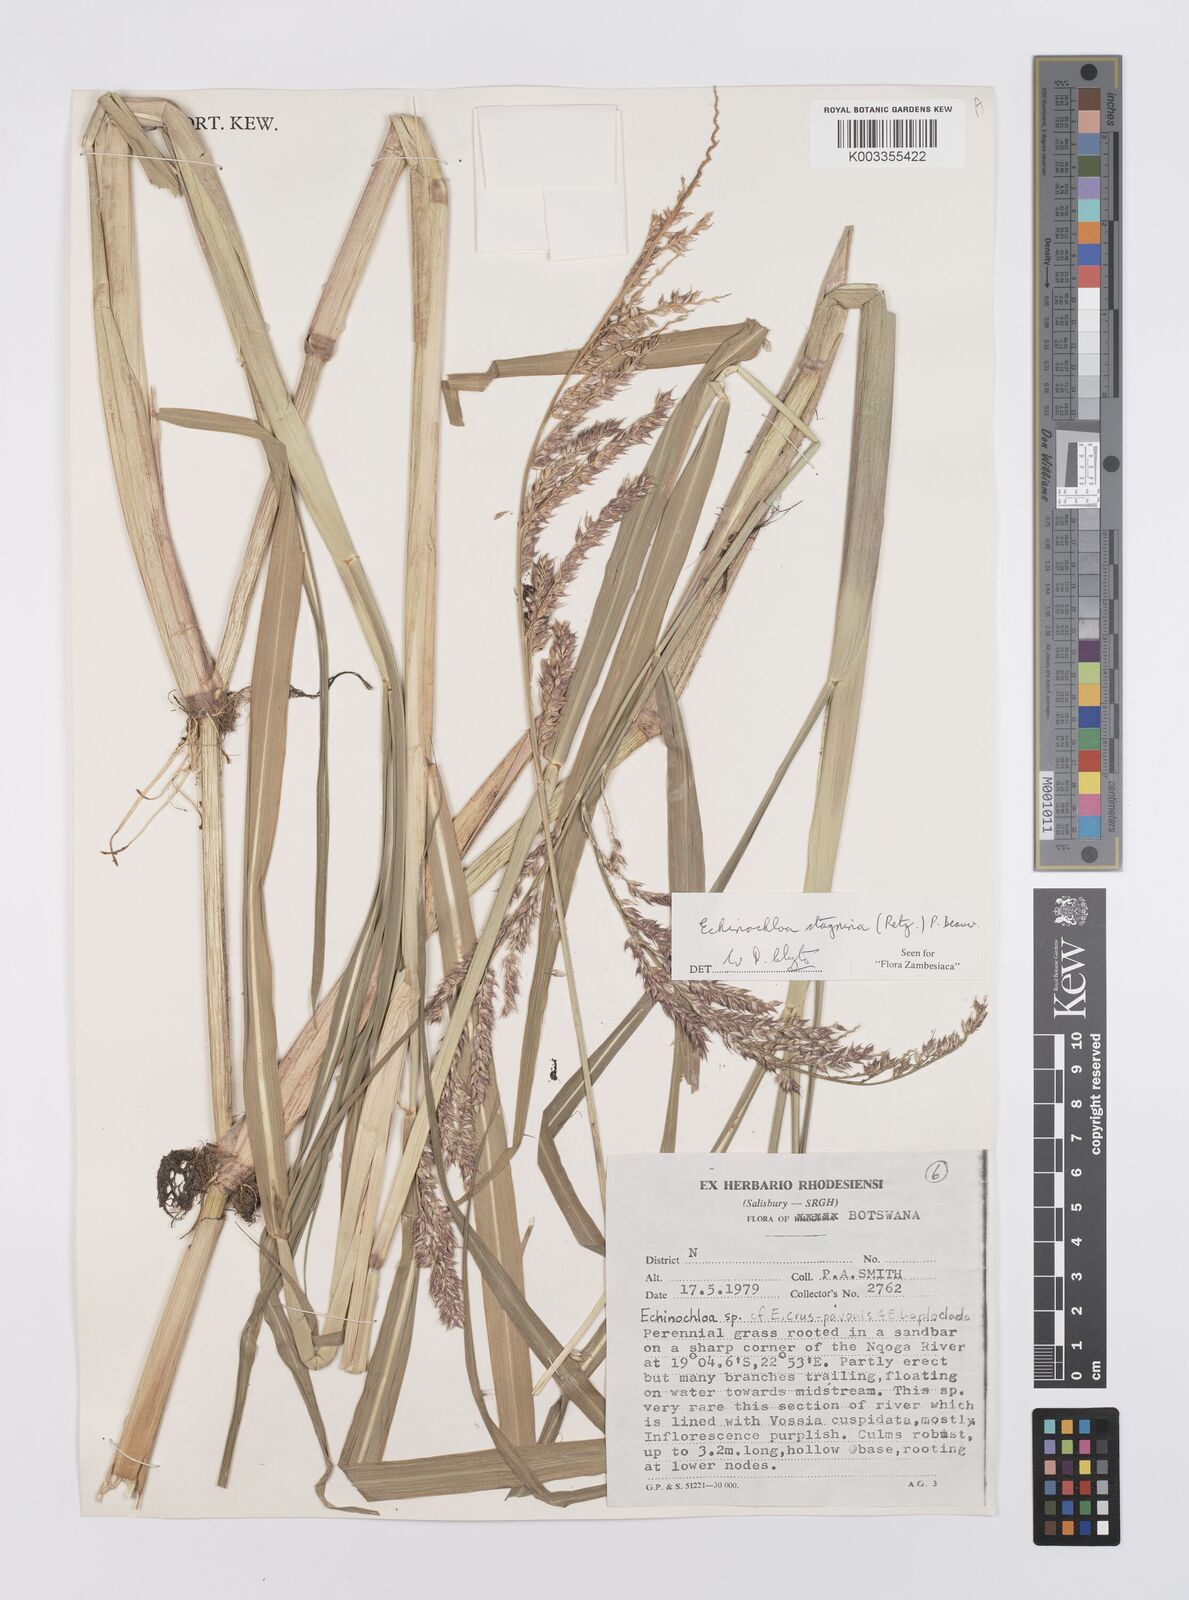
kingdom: Plantae
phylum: Tracheophyta
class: Liliopsida
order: Poales
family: Poaceae
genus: Echinochloa
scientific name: Echinochloa stagnina
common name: Burgu grass
